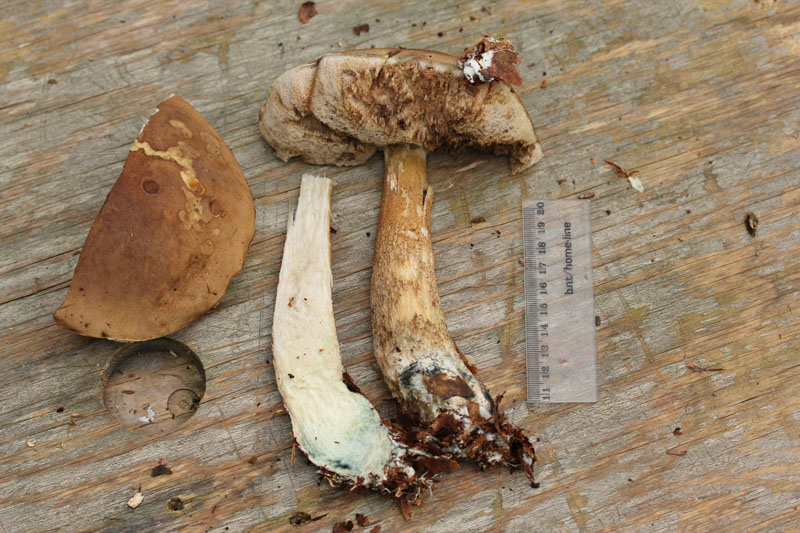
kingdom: Fungi
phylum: Basidiomycota
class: Agaricomycetes
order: Boletales
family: Boletaceae
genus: Leccinum
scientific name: Leccinum cyaneobasileucum
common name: almindelig skælrørhat
